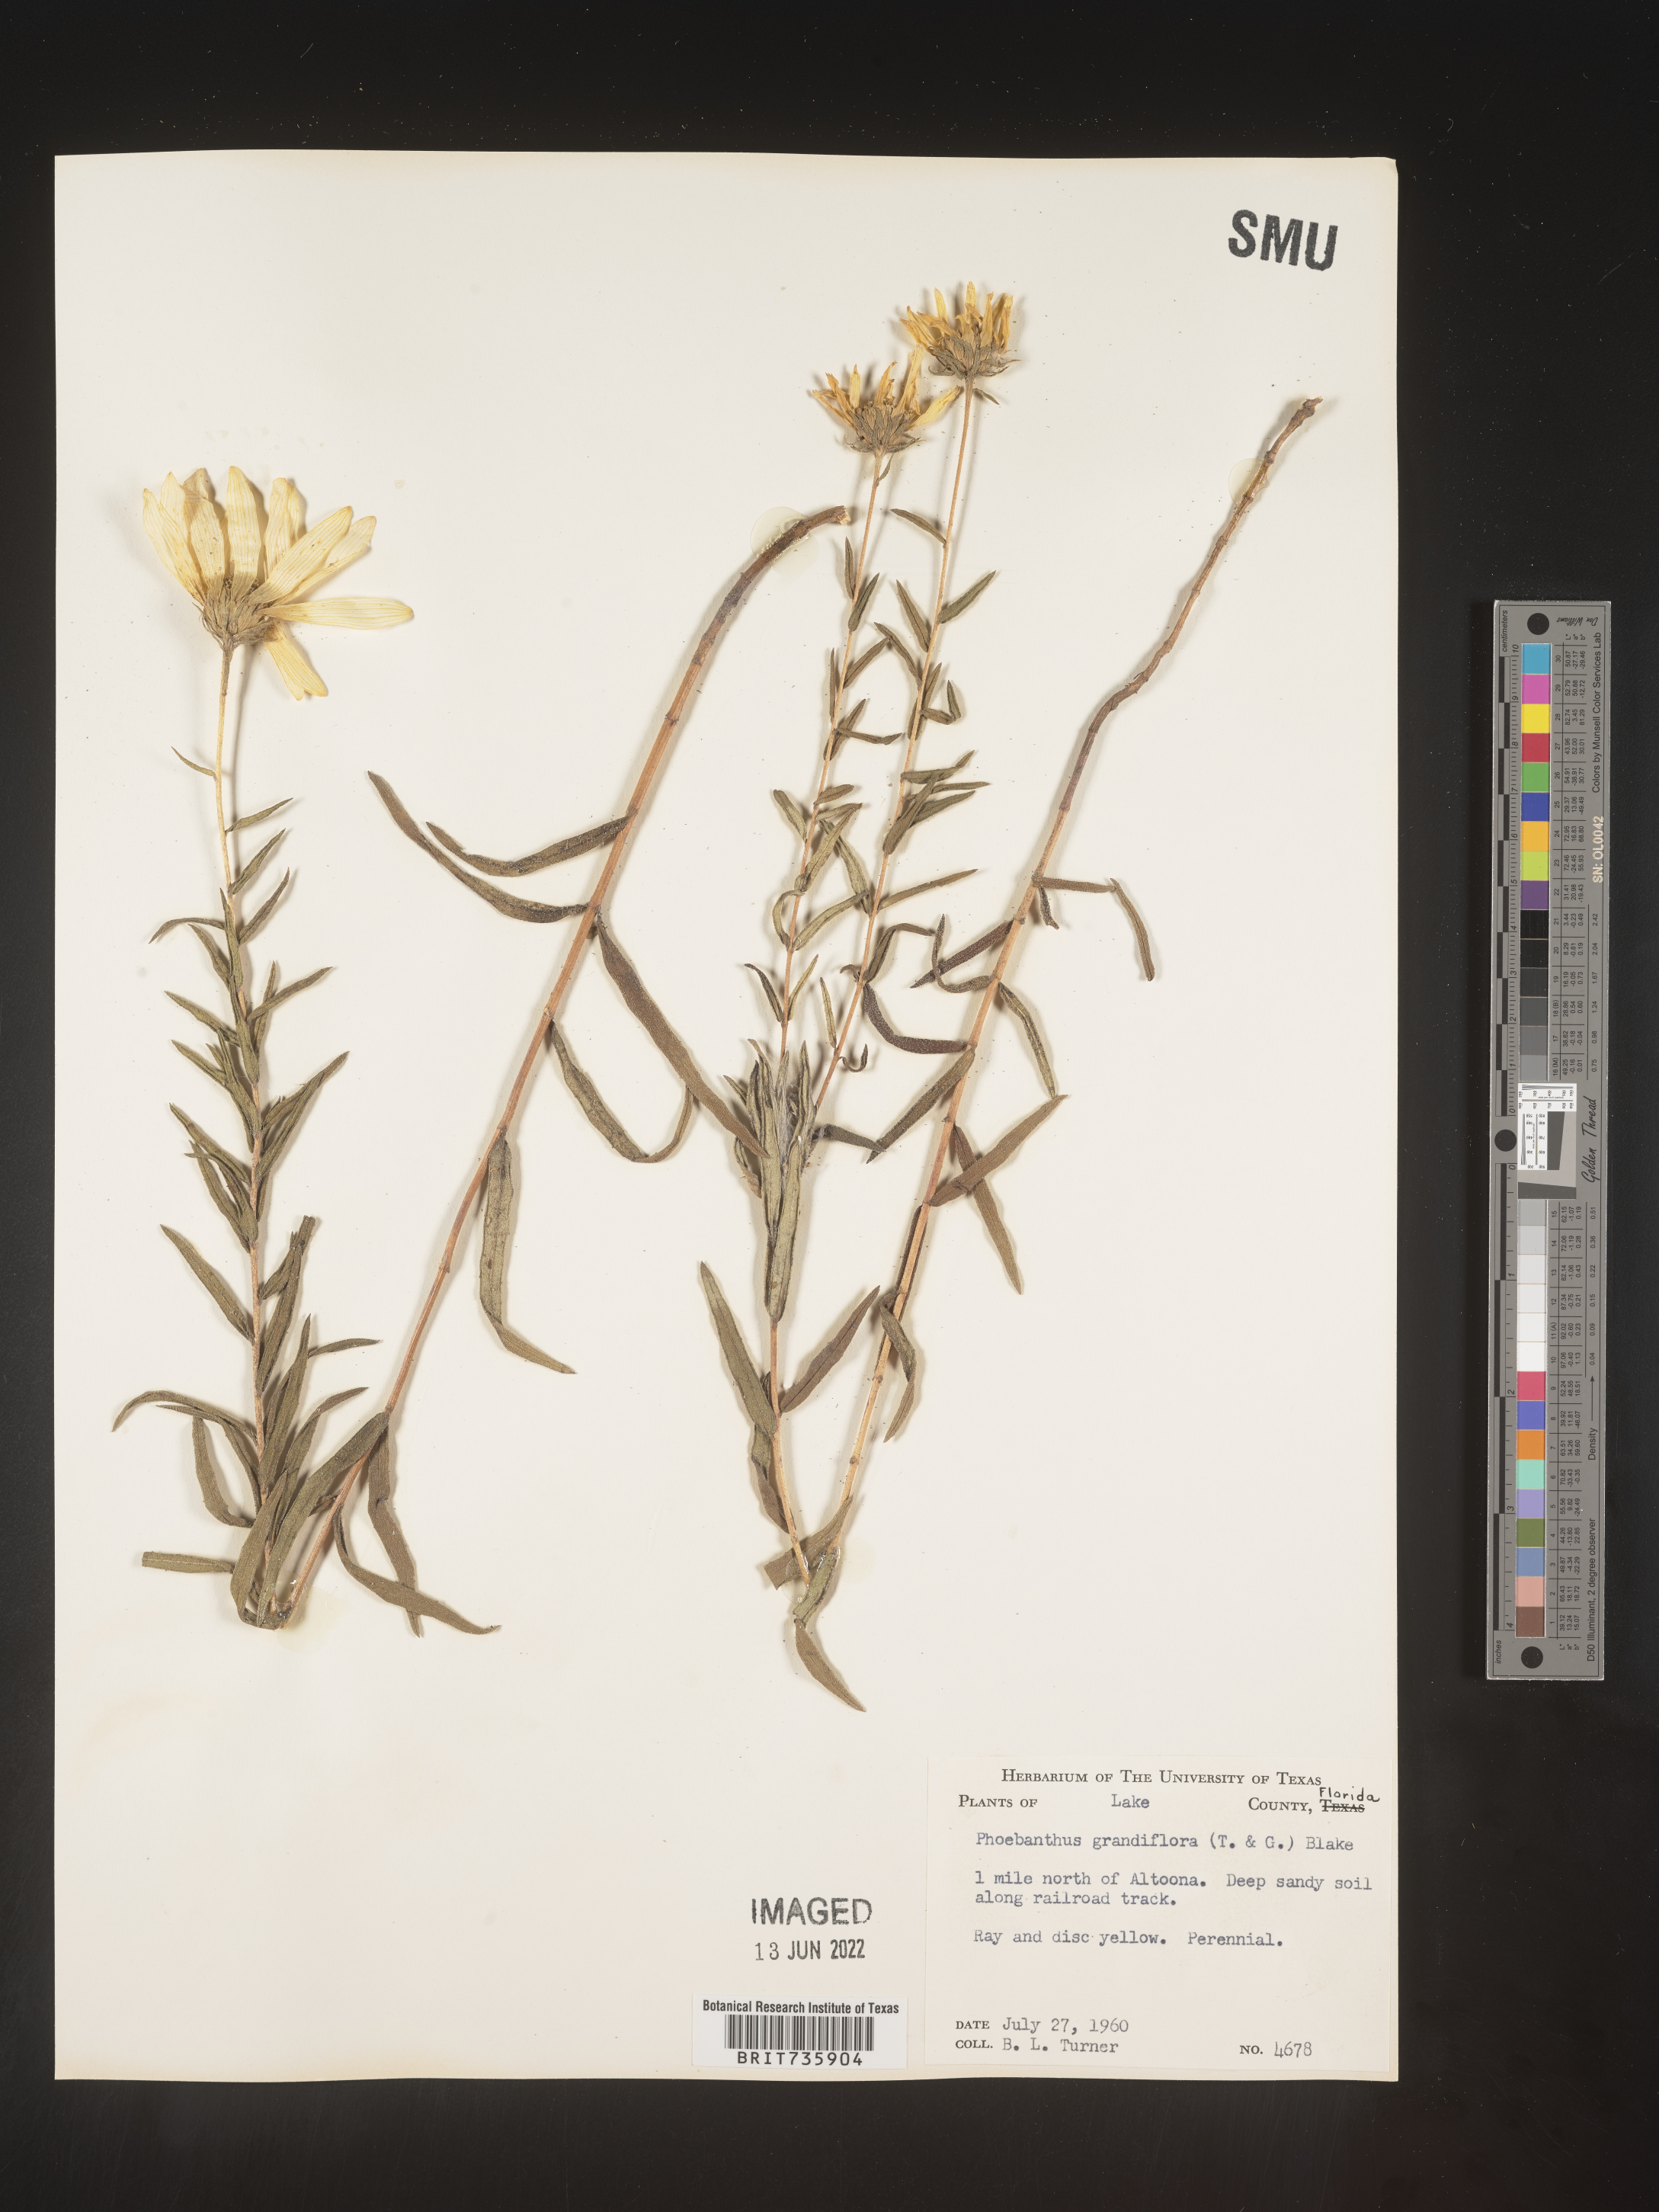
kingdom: Plantae
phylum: Tracheophyta
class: Magnoliopsida
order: Asterales
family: Asteraceae
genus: Phoebanthus
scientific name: Phoebanthus grandiflora
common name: Florida false sunflower
